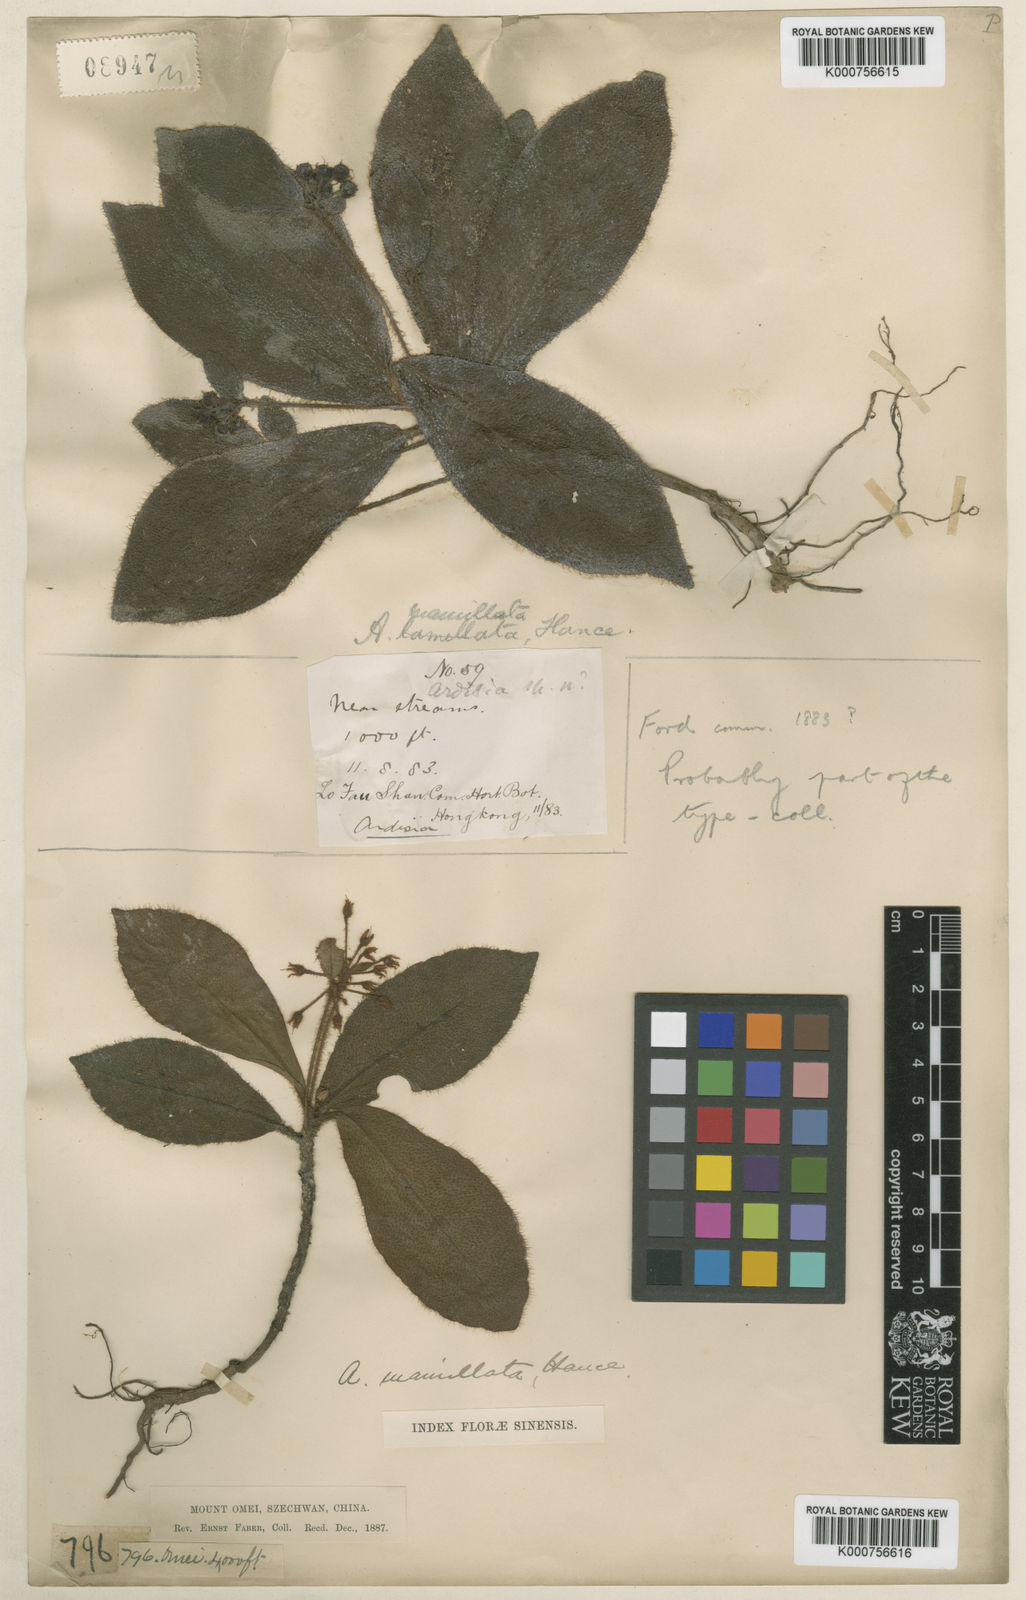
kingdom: Plantae
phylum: Tracheophyta
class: Magnoliopsida
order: Ericales
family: Primulaceae
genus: Ardisia
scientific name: Ardisia mamillata
